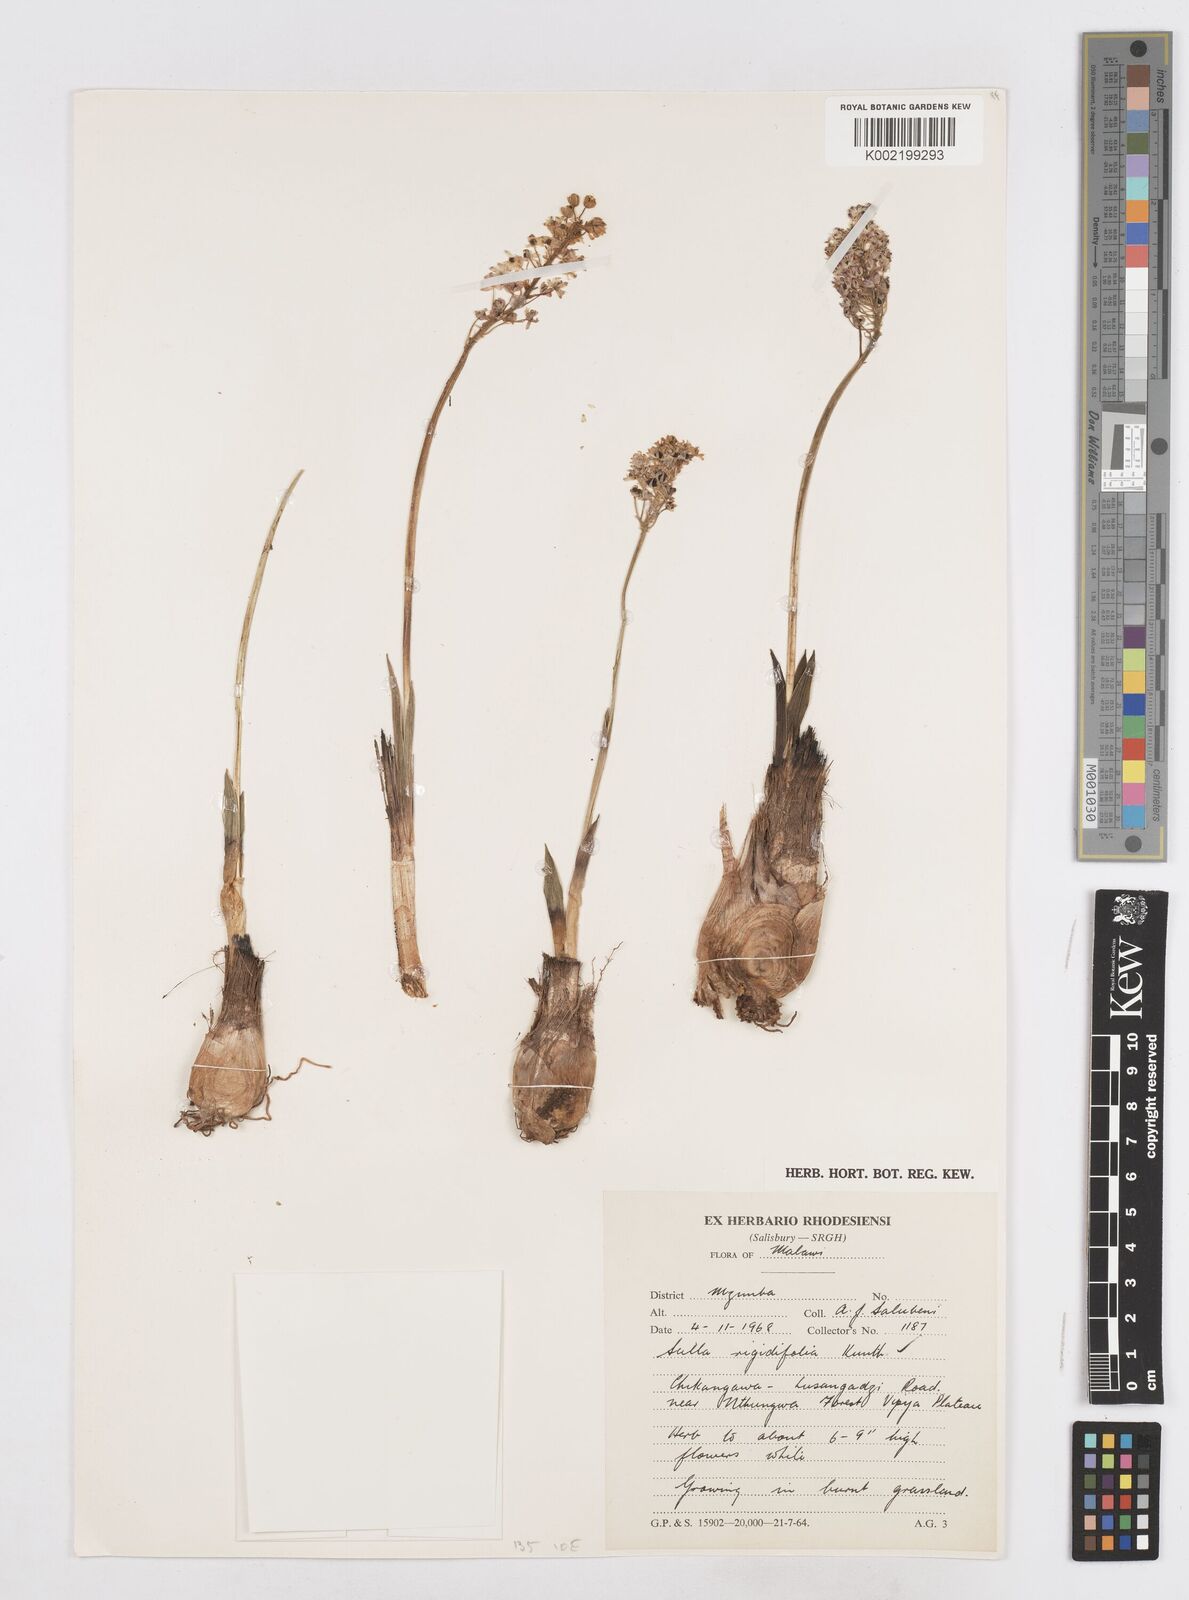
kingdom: Plantae
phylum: Tracheophyta
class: Liliopsida
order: Asparagales
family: Asparagaceae
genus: Schizocarphus
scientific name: Schizocarphus nervosus
